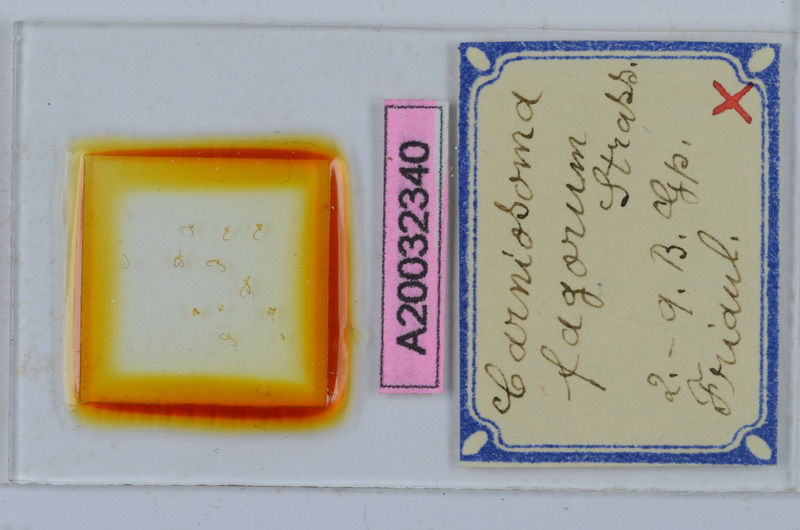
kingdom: Animalia
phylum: Arthropoda
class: Diplopoda
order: Chordeumatida
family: Craspedosomatidae
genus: Carniosoma
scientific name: Carniosoma verhoeffi
